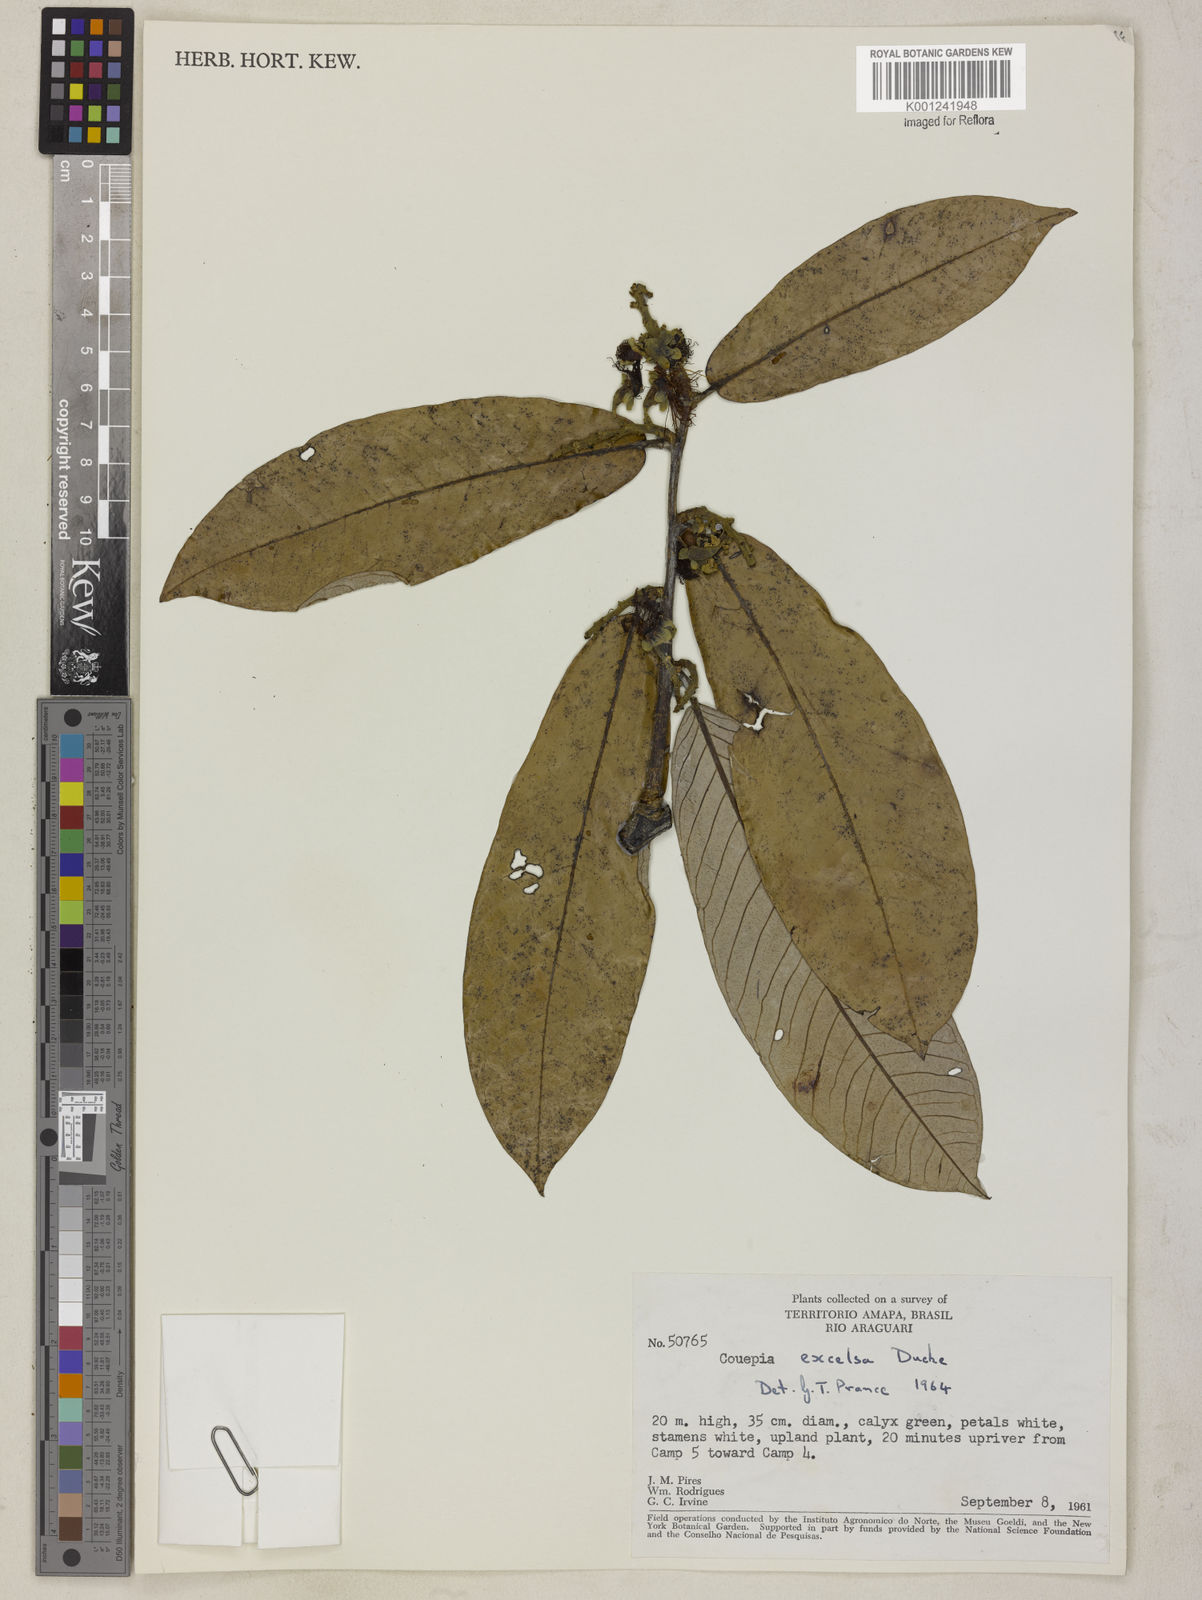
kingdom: Plantae
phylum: Tracheophyta
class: Magnoliopsida
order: Malpighiales
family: Chrysobalanaceae
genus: Couepia
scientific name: Couepia excelsa
